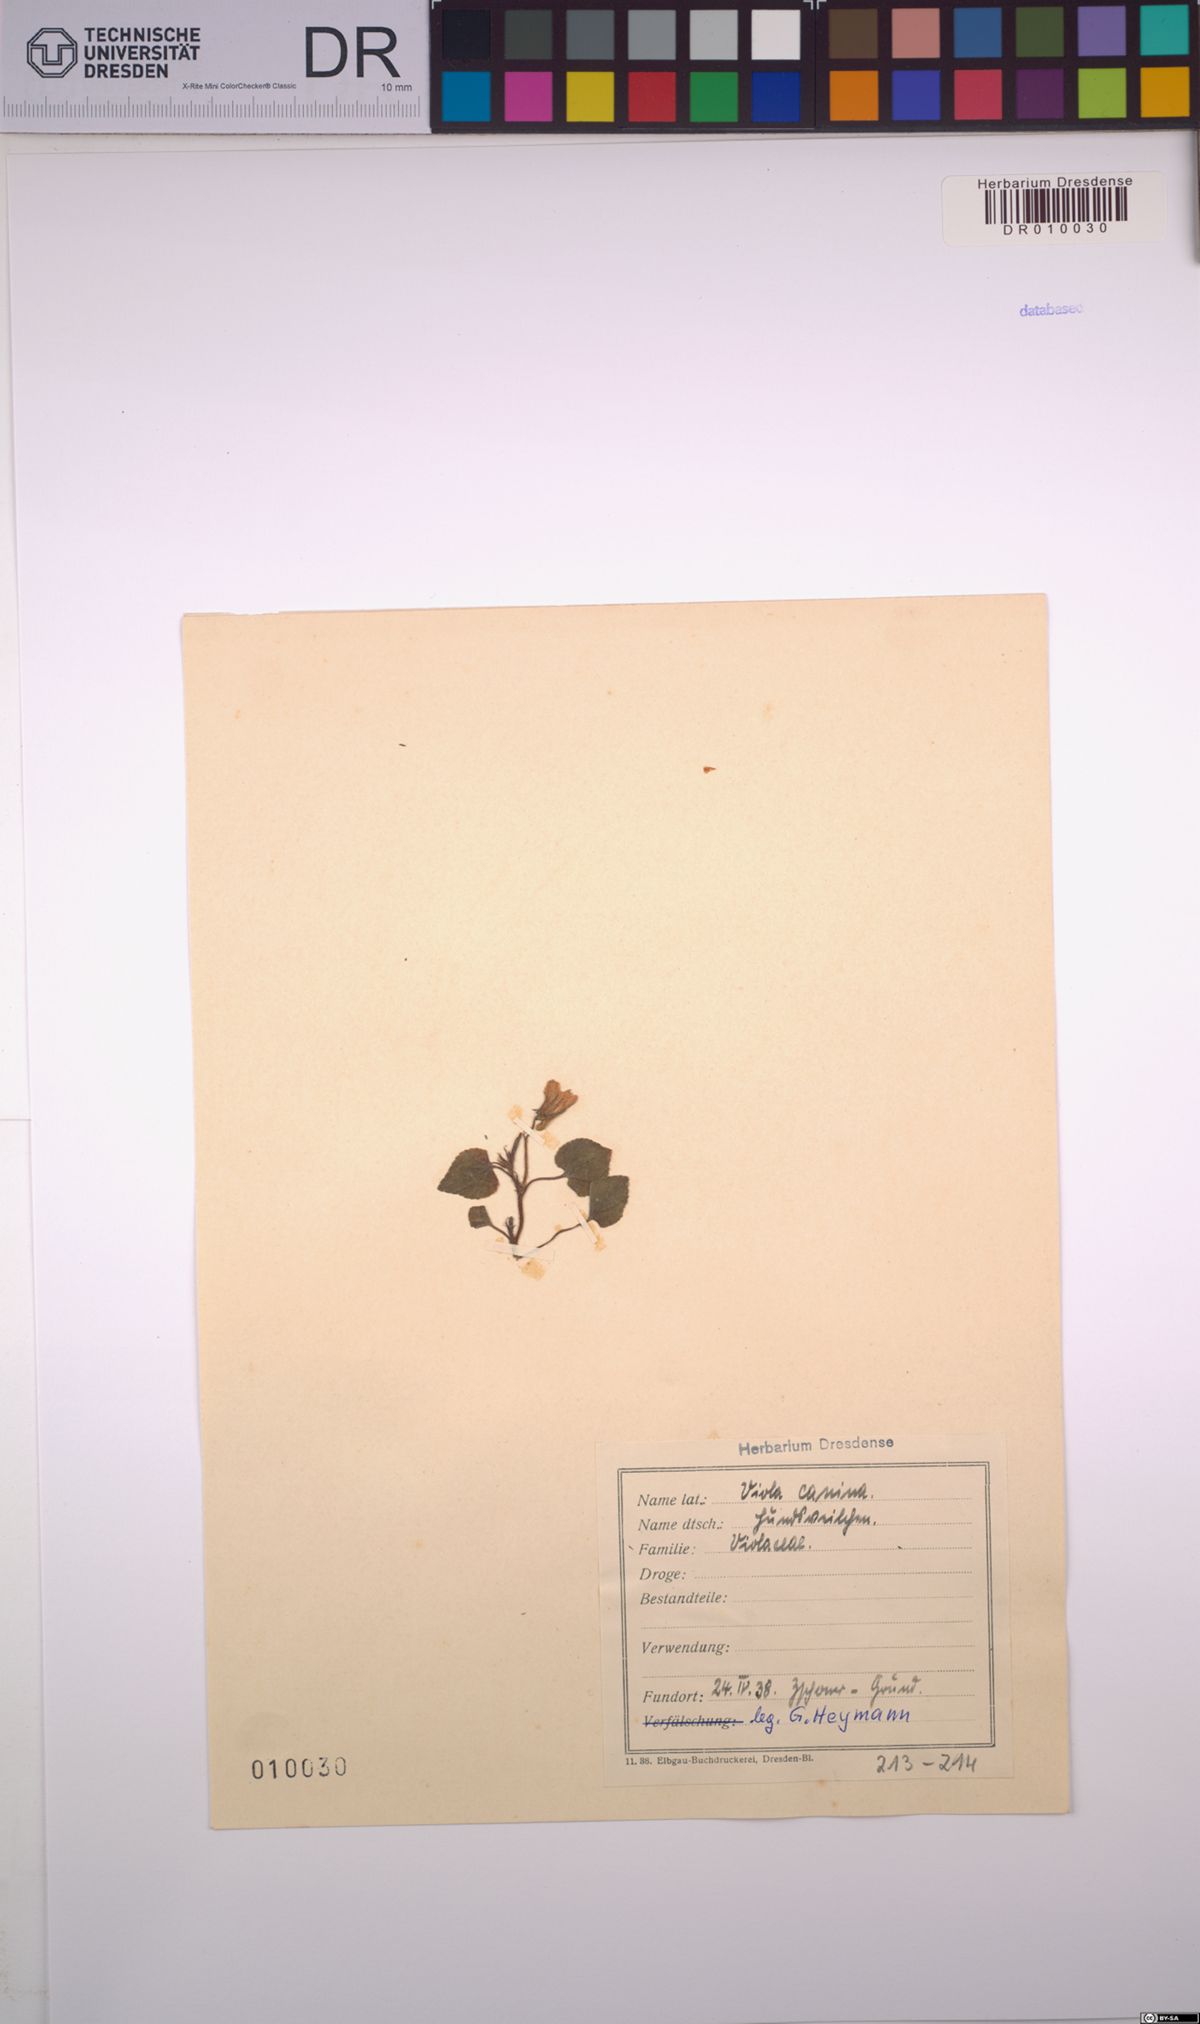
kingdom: Plantae
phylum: Tracheophyta
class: Magnoliopsida
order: Malpighiales
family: Violaceae
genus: Viola
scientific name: Viola canina
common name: Heath dog-violet
